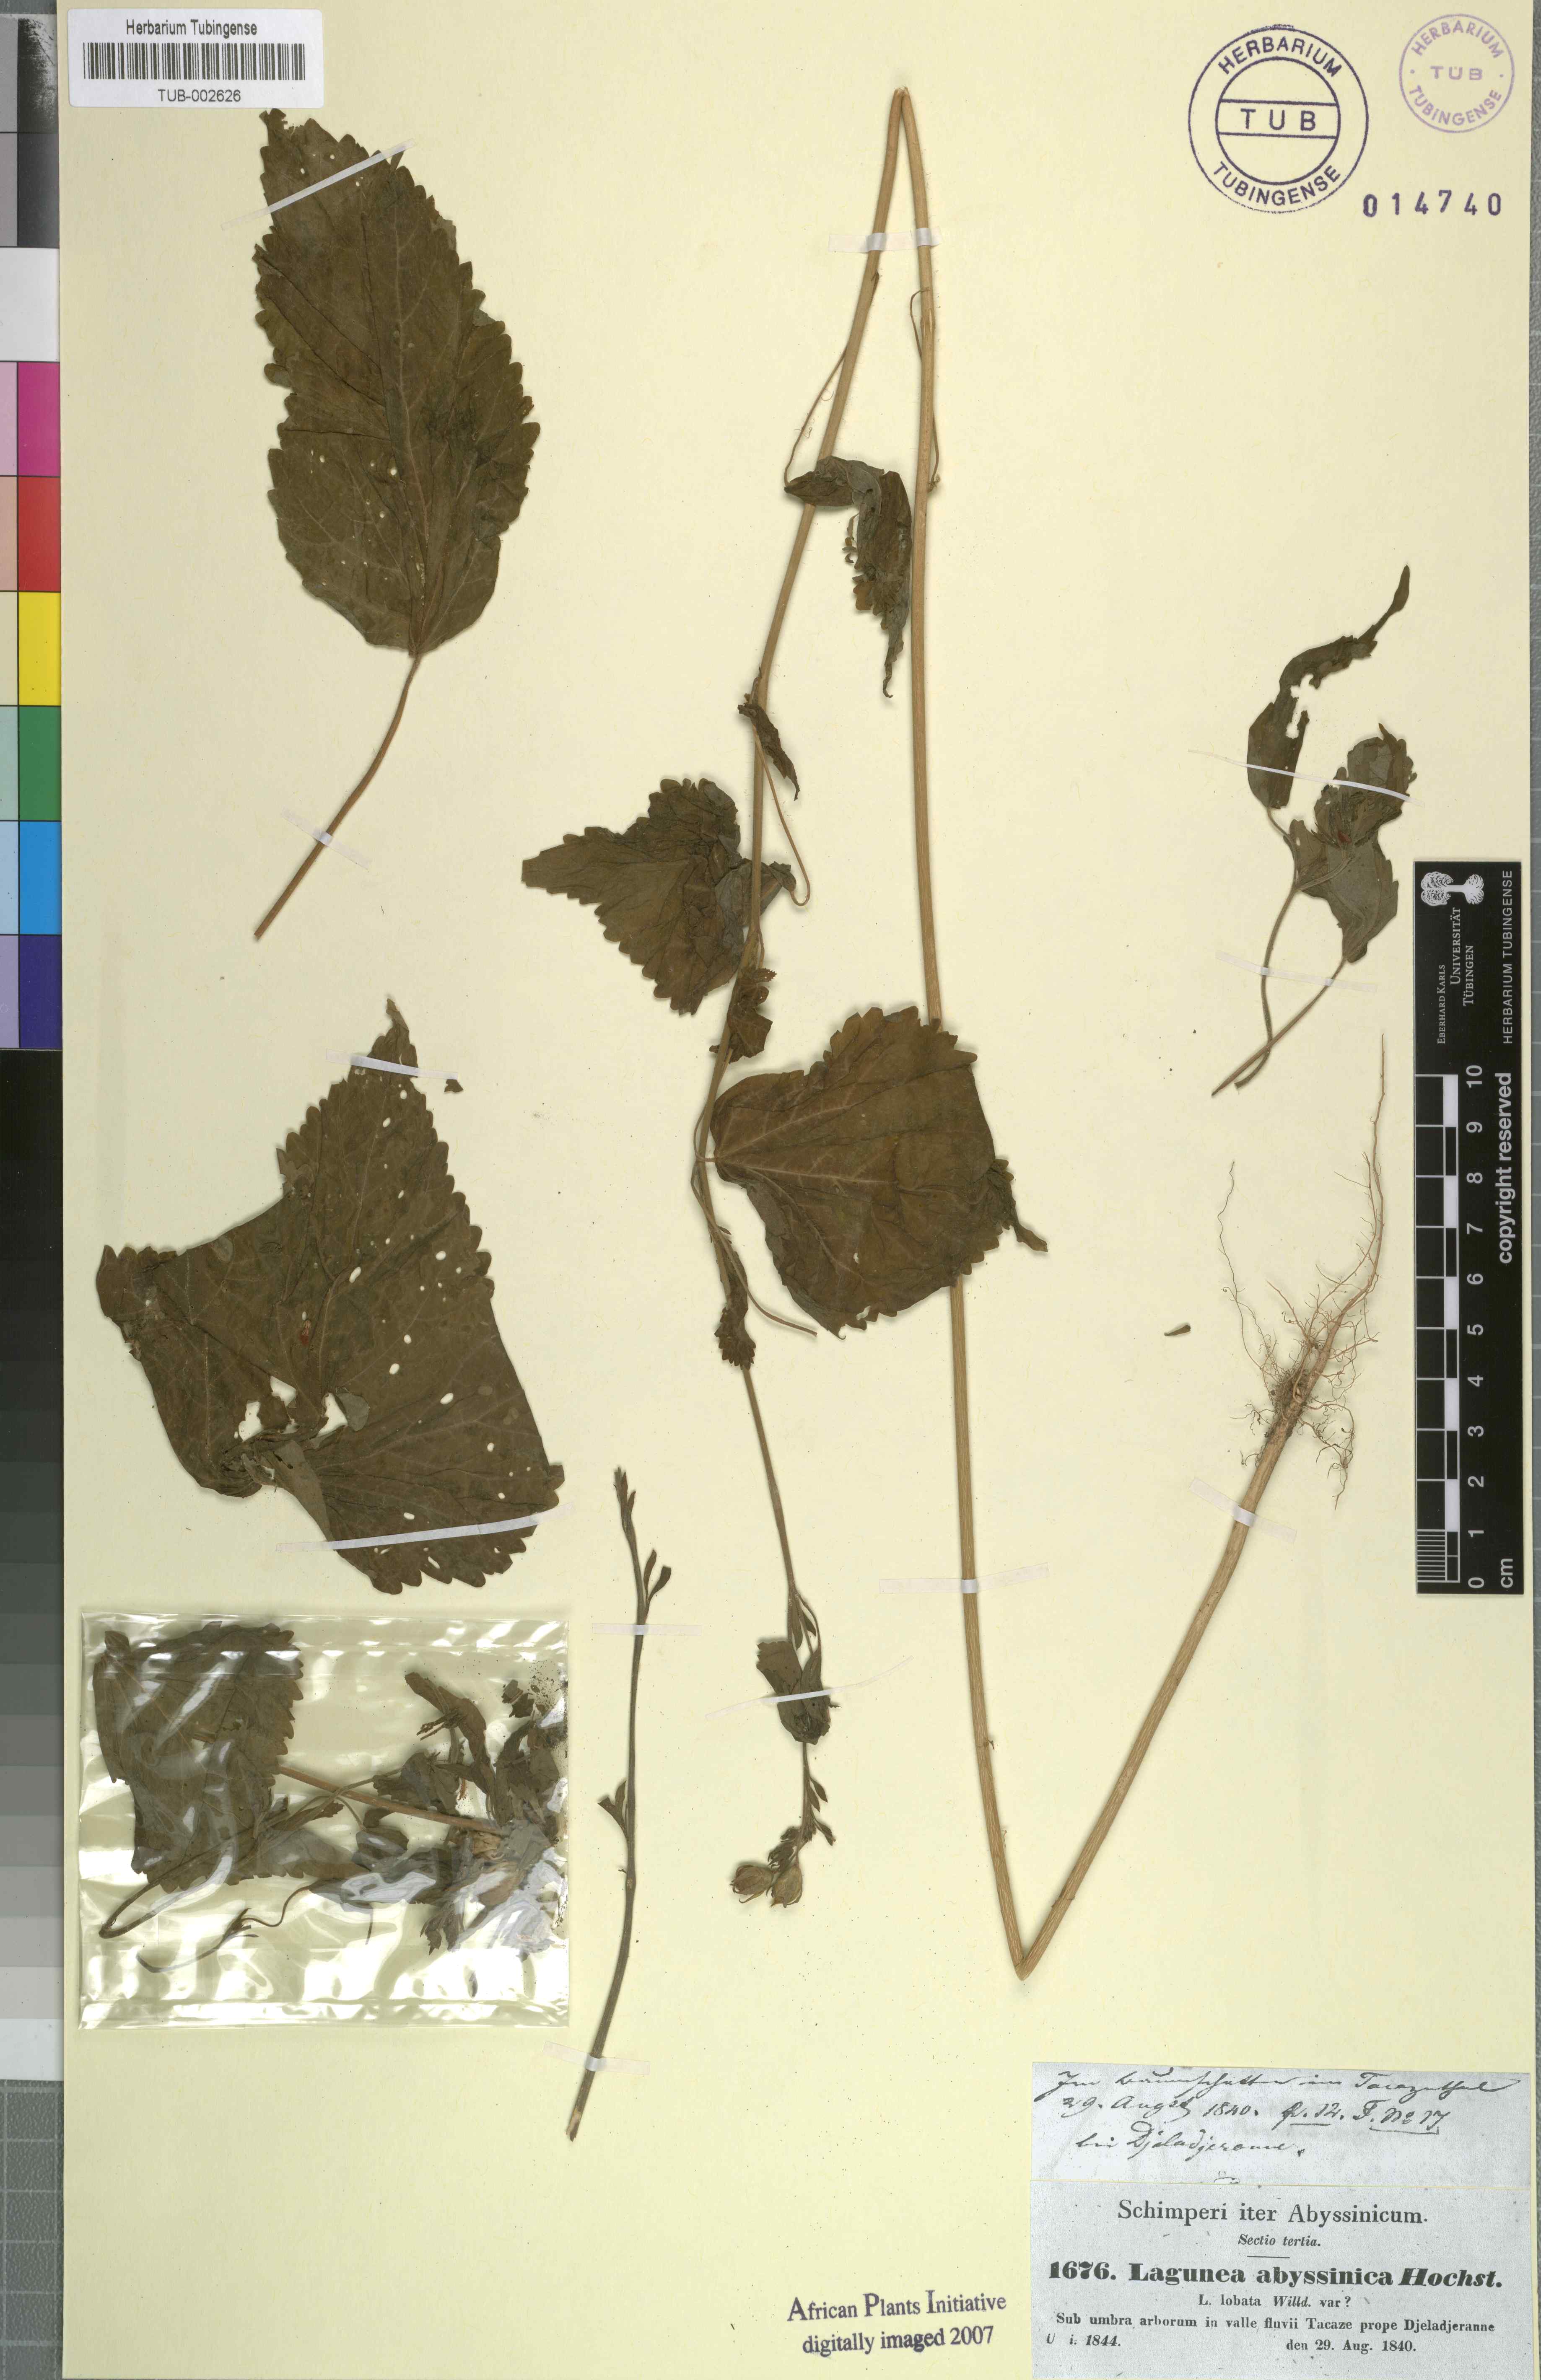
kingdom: Plantae
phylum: Tracheophyta
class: Magnoliopsida
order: Malvales
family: Malvaceae
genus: Hibiscus
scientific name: Hibiscus lobatus
